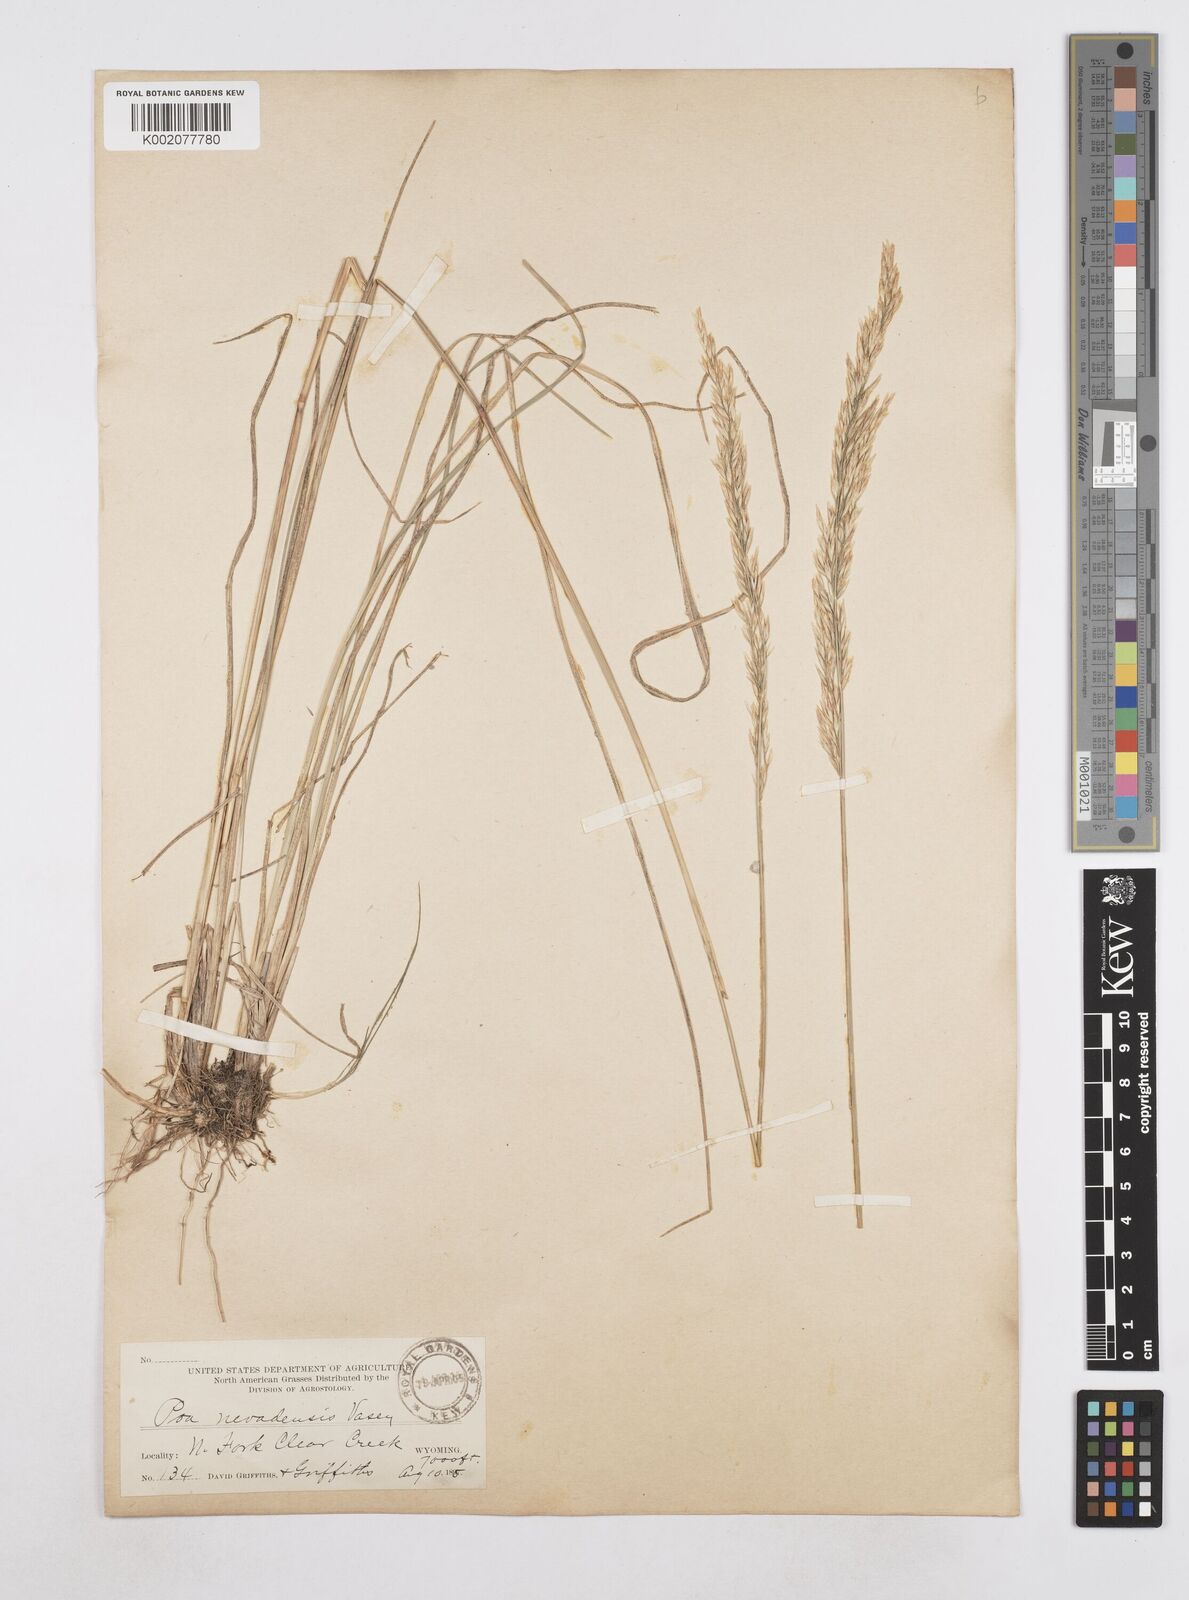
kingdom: Plantae
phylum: Tracheophyta
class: Liliopsida
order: Poales
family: Poaceae
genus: Poa
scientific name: Poa secunda
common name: Sandberg bluegrass
